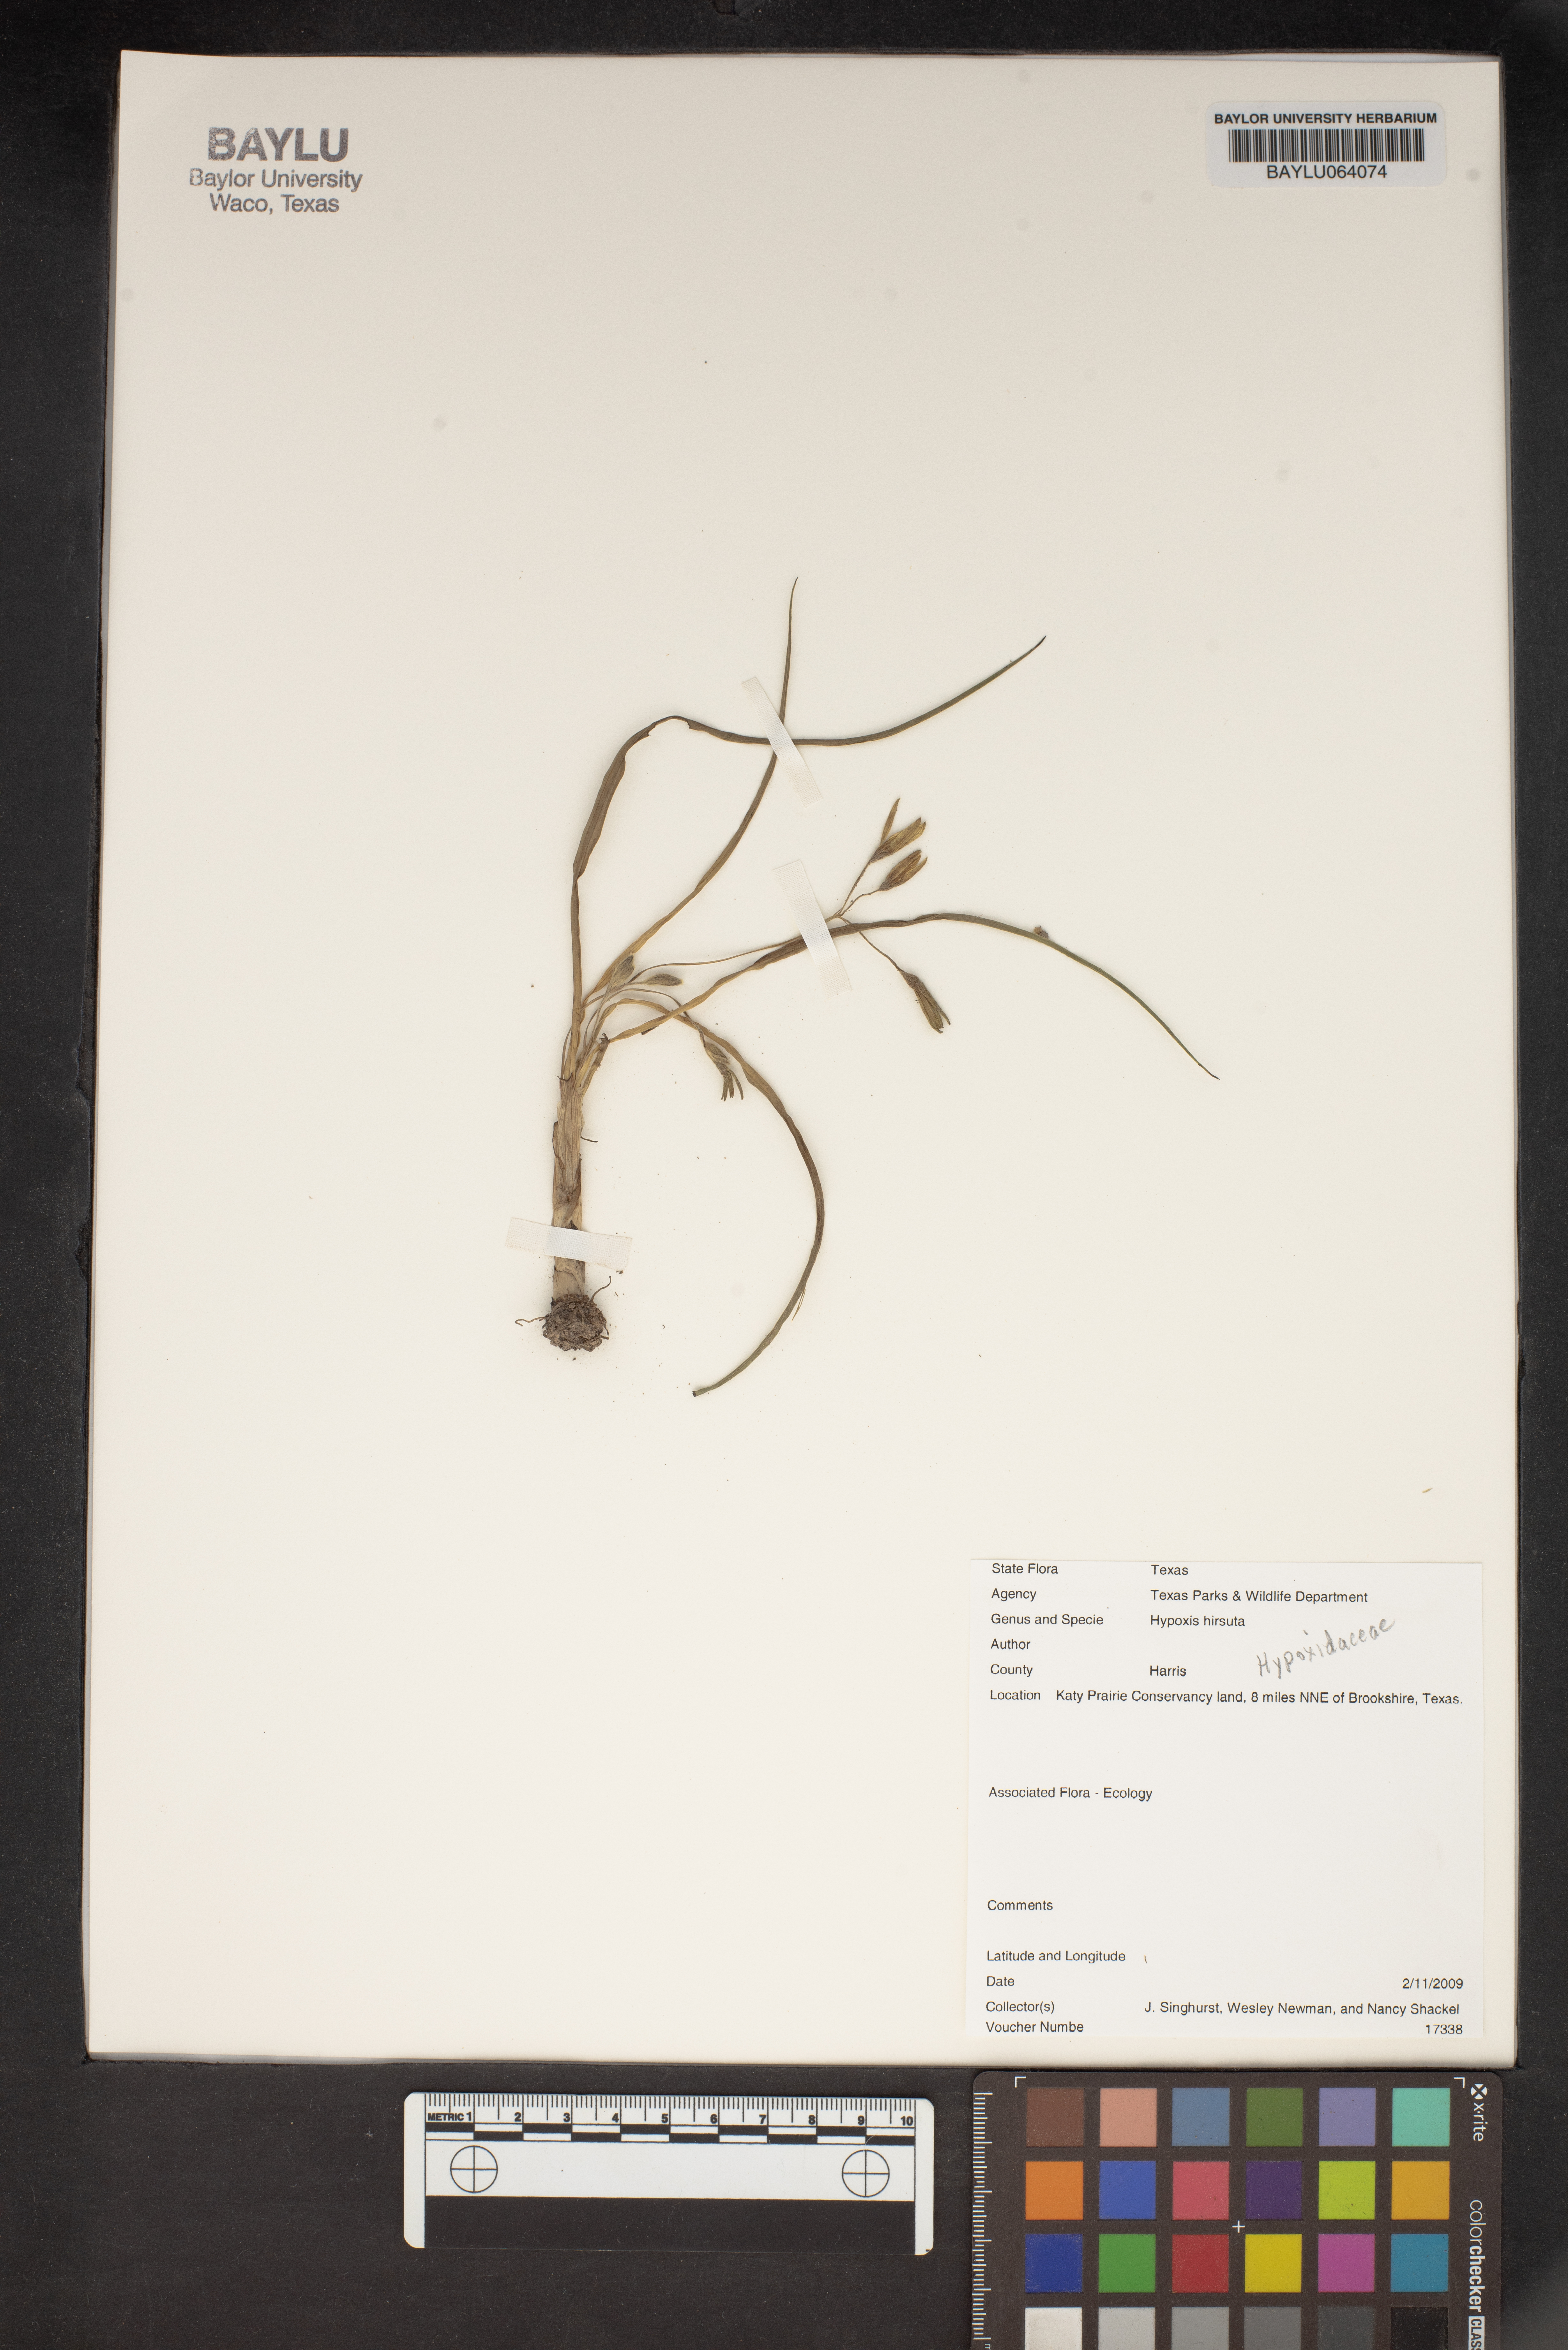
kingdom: Plantae
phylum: Tracheophyta
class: Liliopsida
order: Asparagales
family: Hypoxidaceae
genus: Hypoxis
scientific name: Hypoxis hirsuta
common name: Common goldstar
